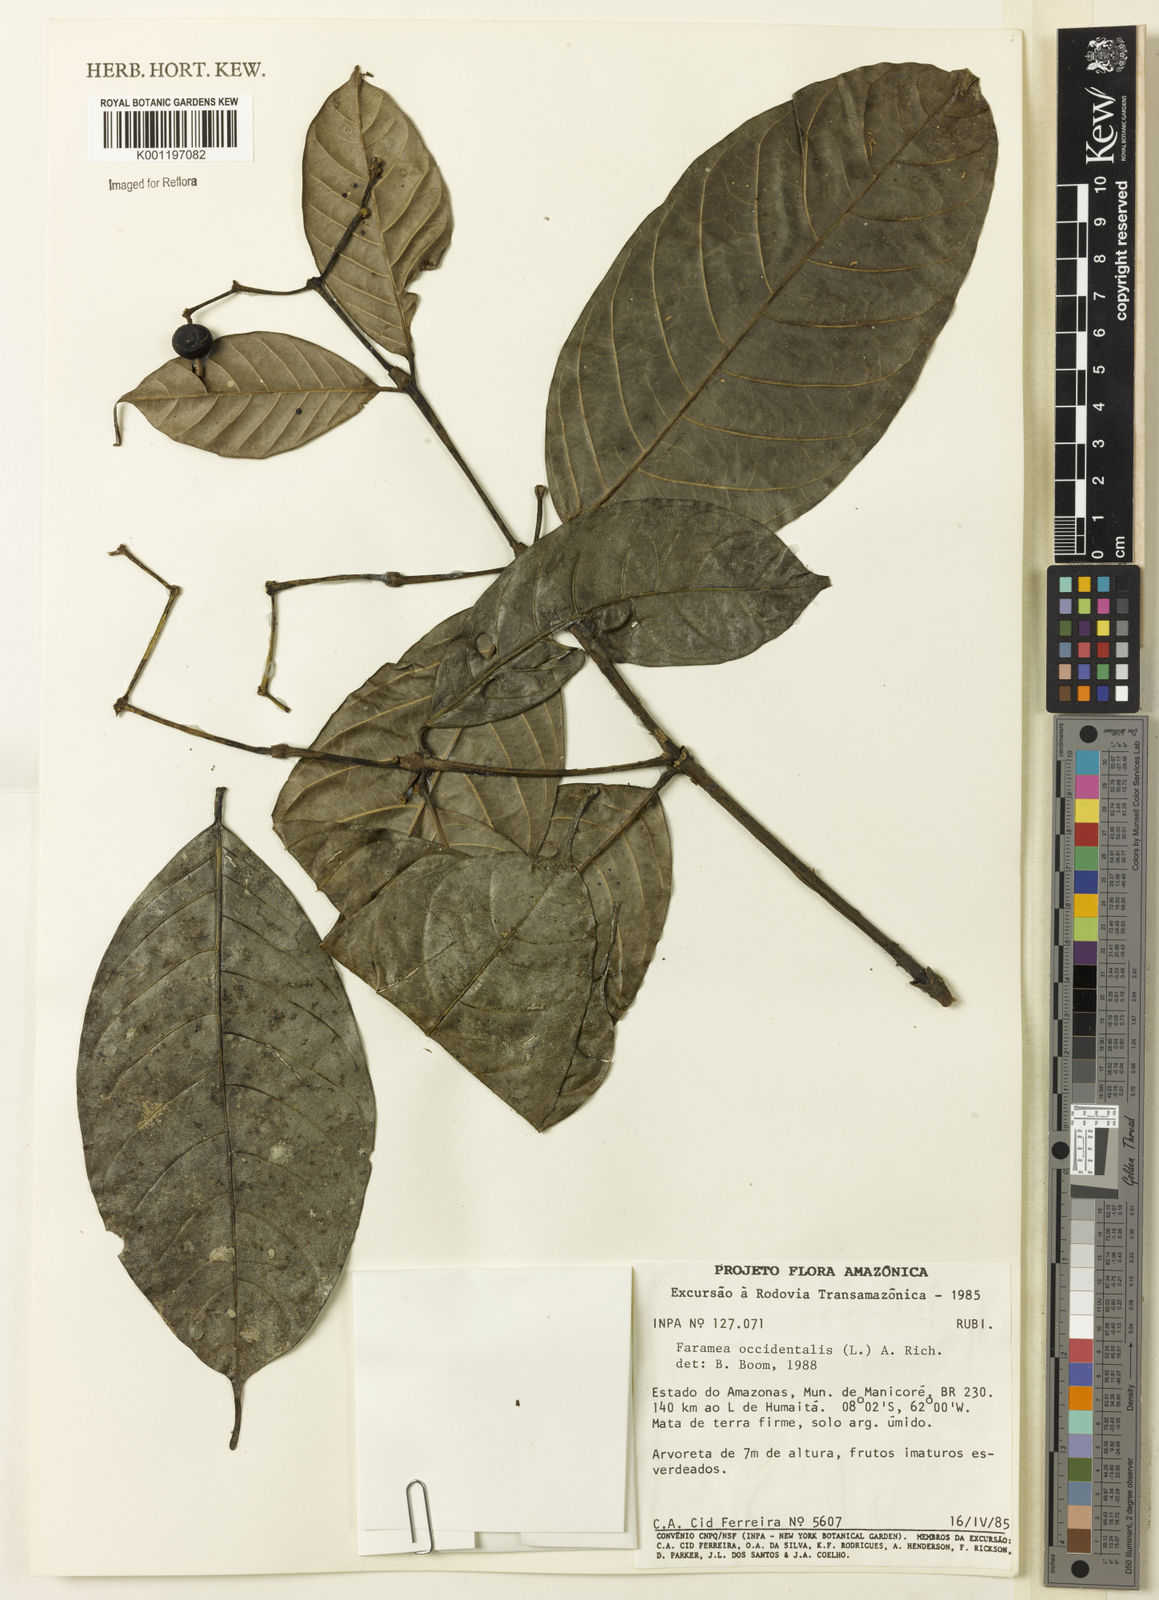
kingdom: Plantae
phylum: Tracheophyta
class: Magnoliopsida
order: Gentianales
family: Rubiaceae
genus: Faramea
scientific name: Faramea occidentalis
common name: False coffee
